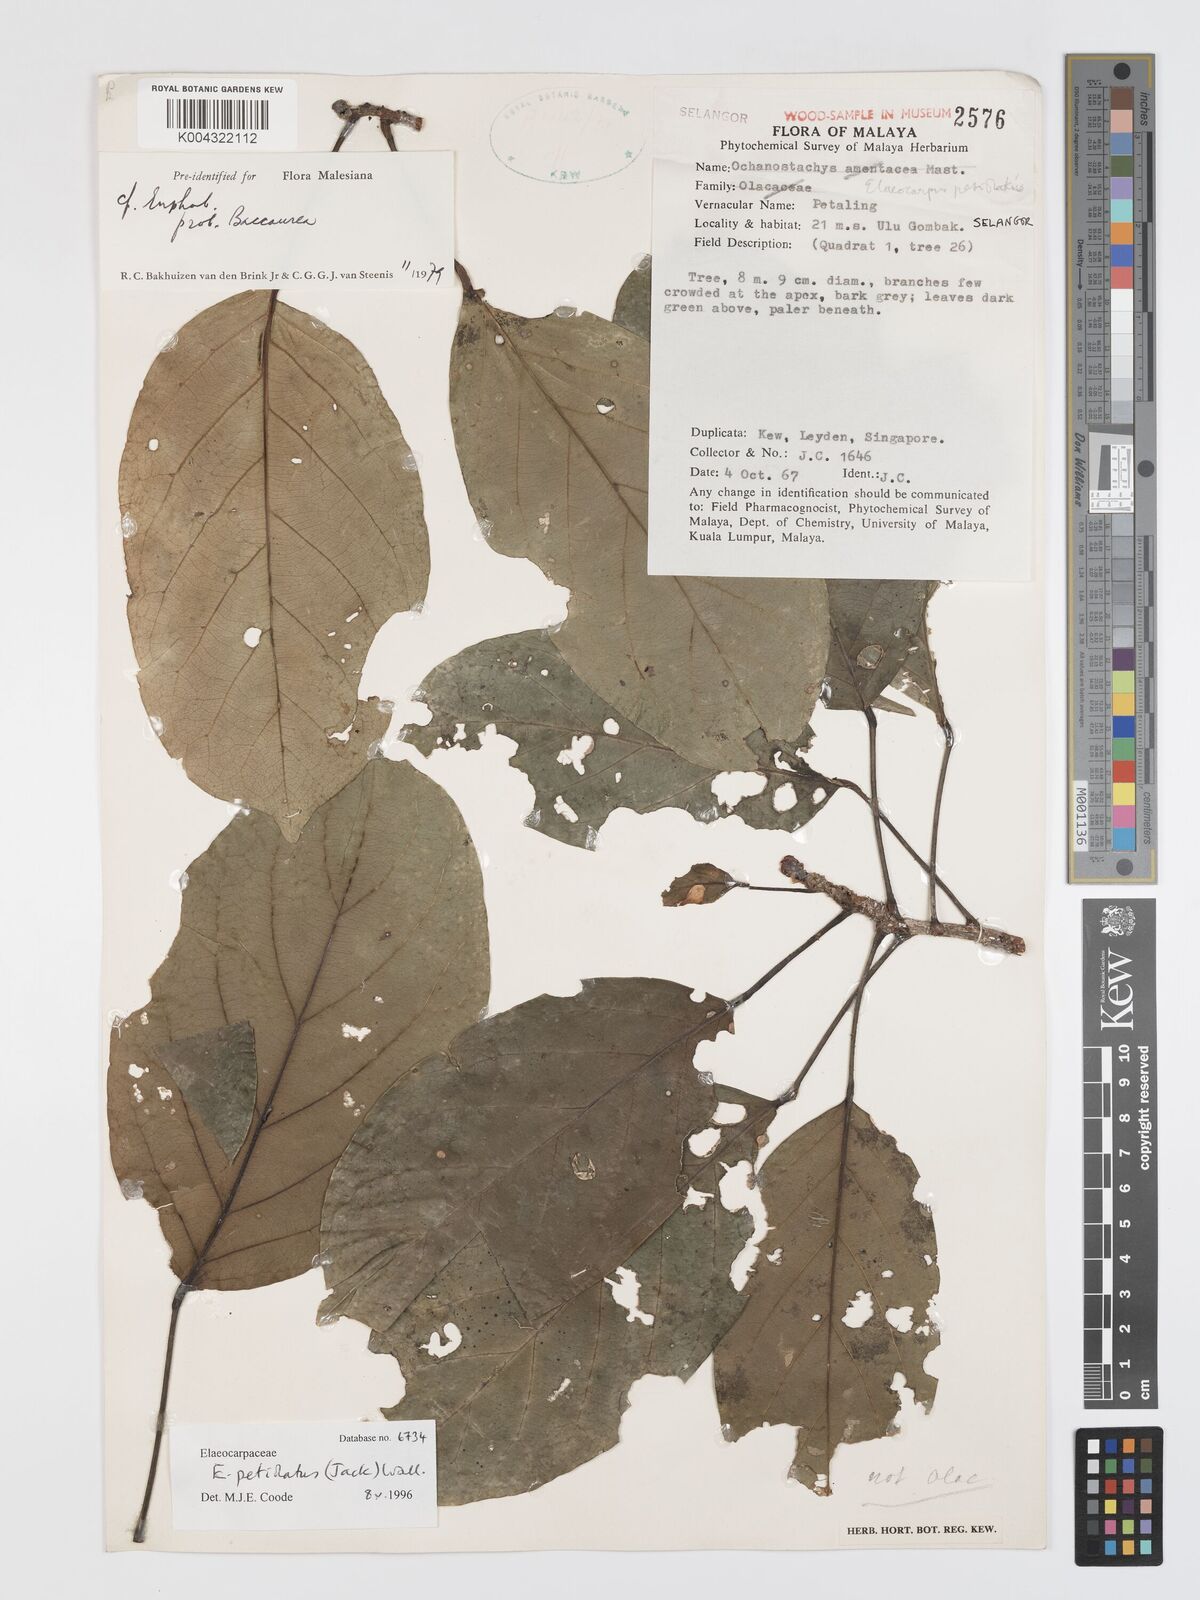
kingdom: Plantae
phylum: Tracheophyta
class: Magnoliopsida
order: Oxalidales
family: Elaeocarpaceae
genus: Elaeocarpus
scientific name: Elaeocarpus petiolatus
